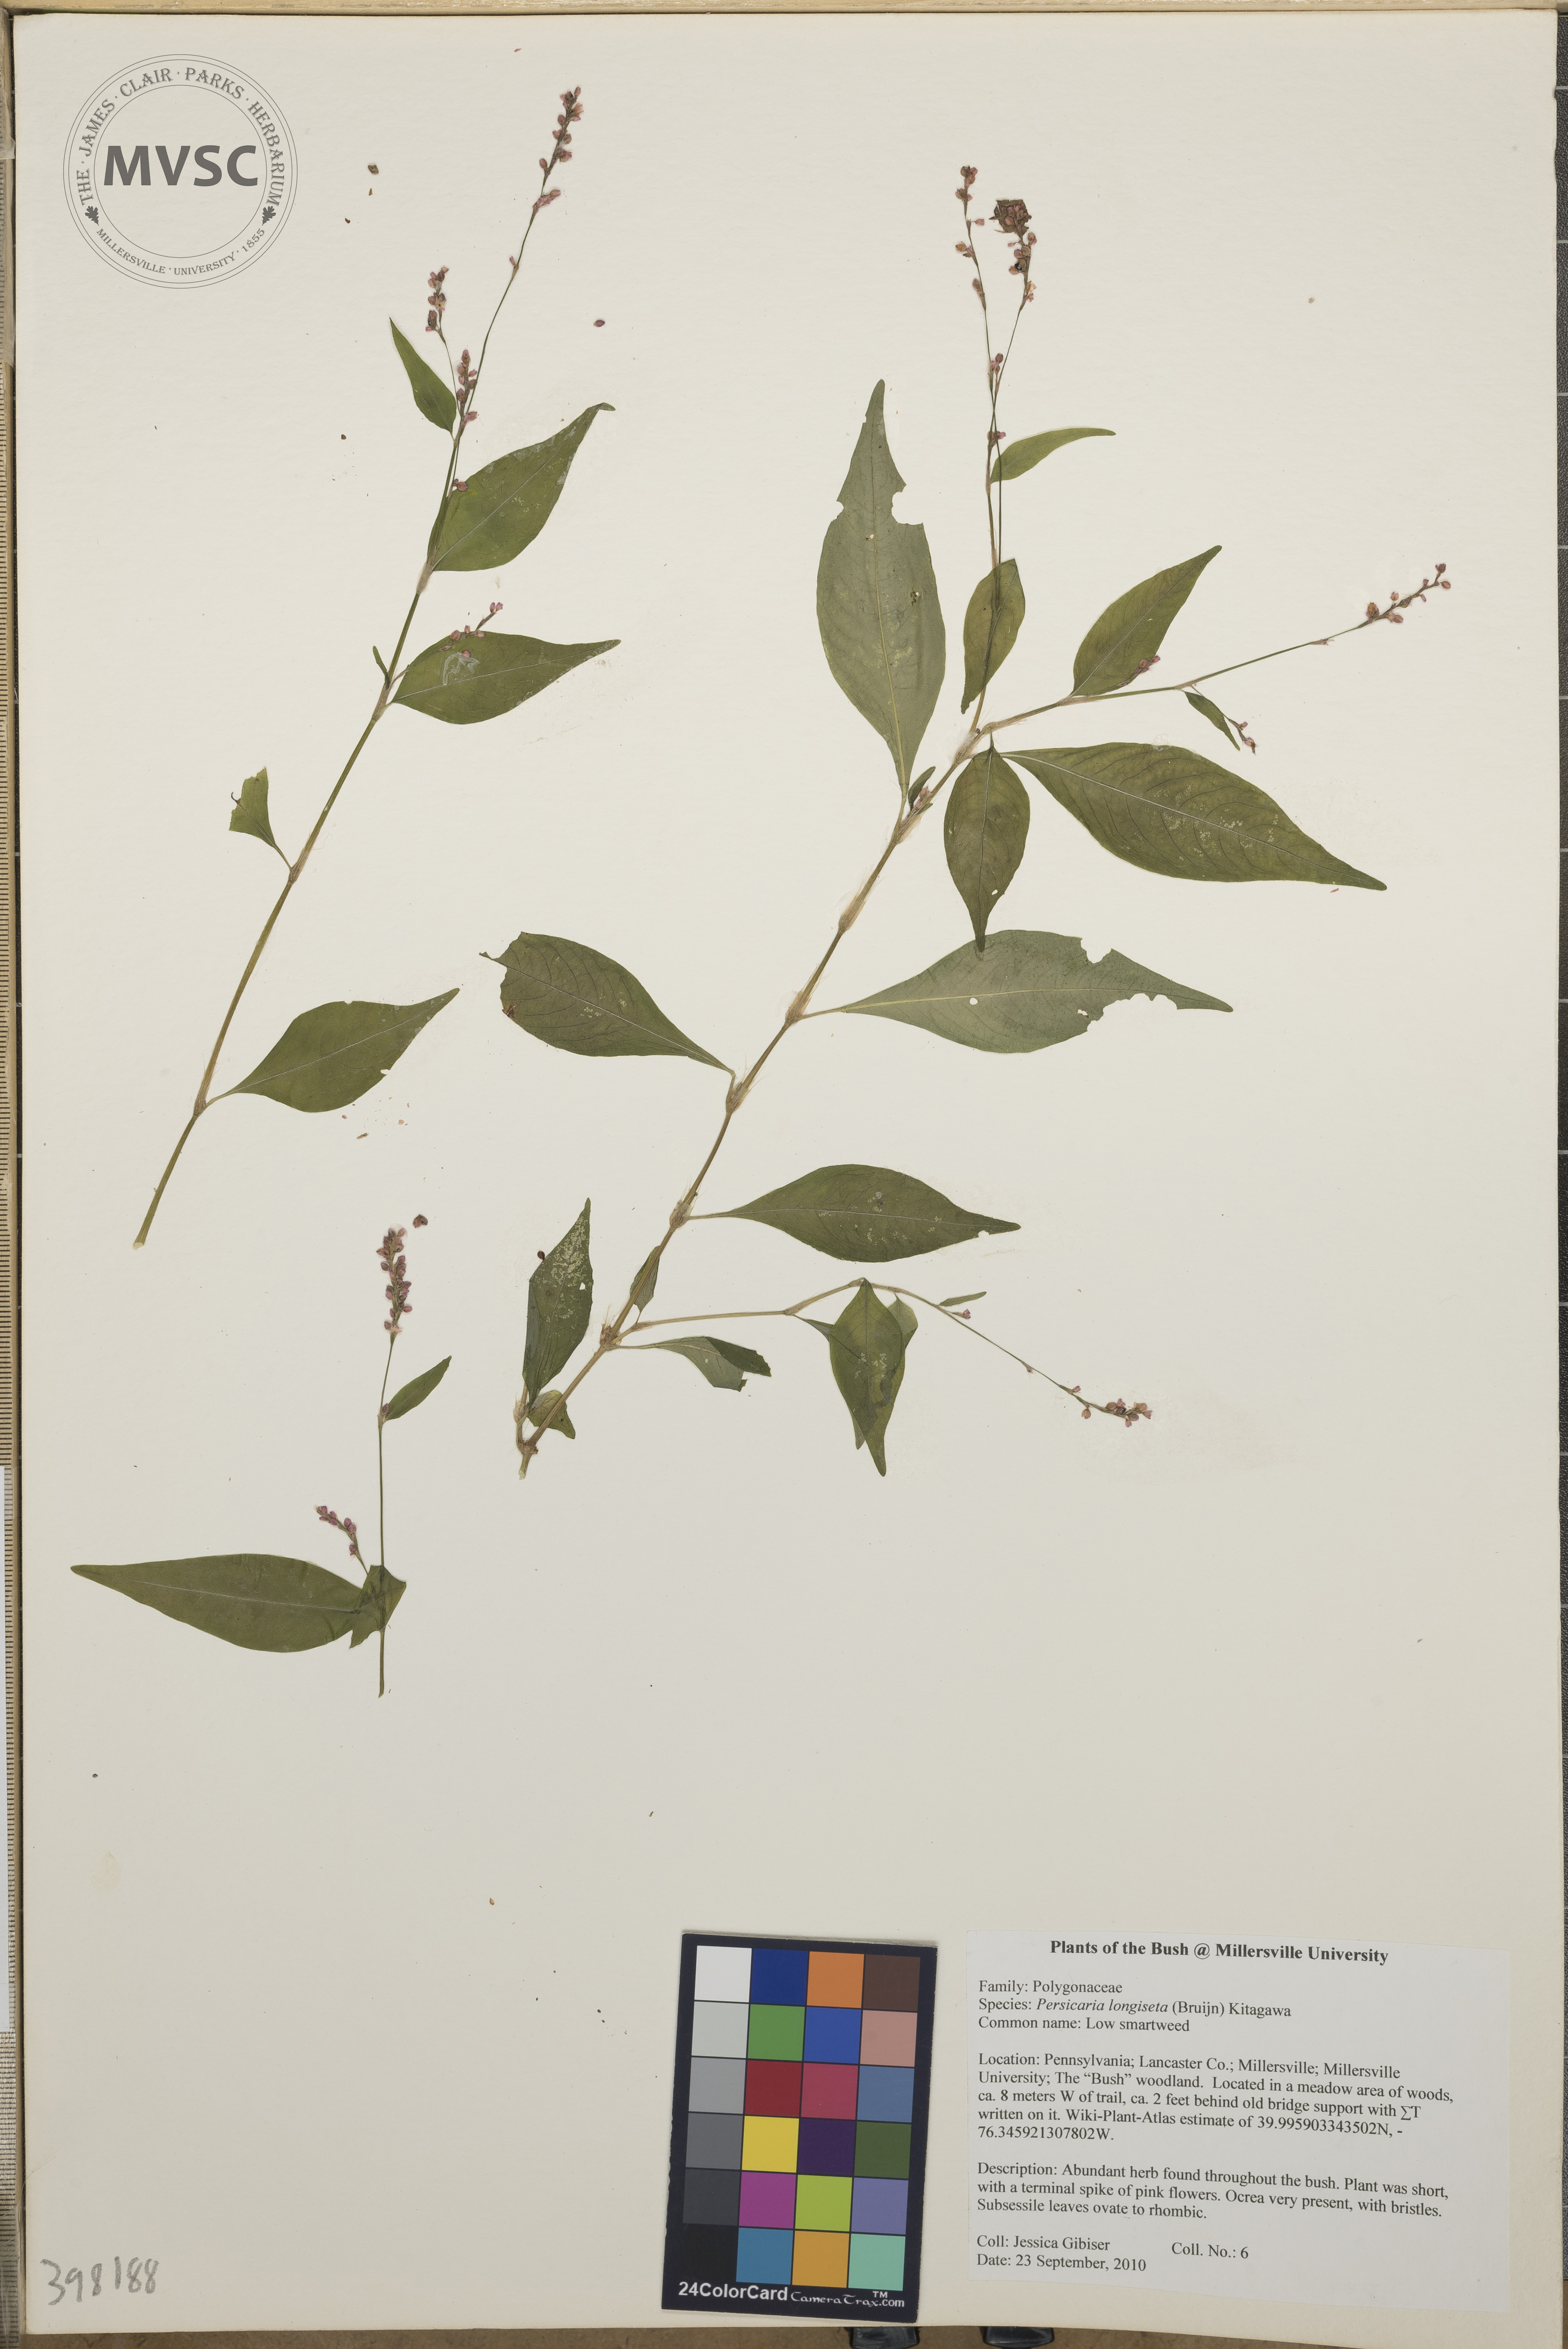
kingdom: Plantae
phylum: Tracheophyta
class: Magnoliopsida
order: Caryophyllales
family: Polygonaceae
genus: Persicaria
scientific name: Persicaria longiseta
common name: Low smartweed
